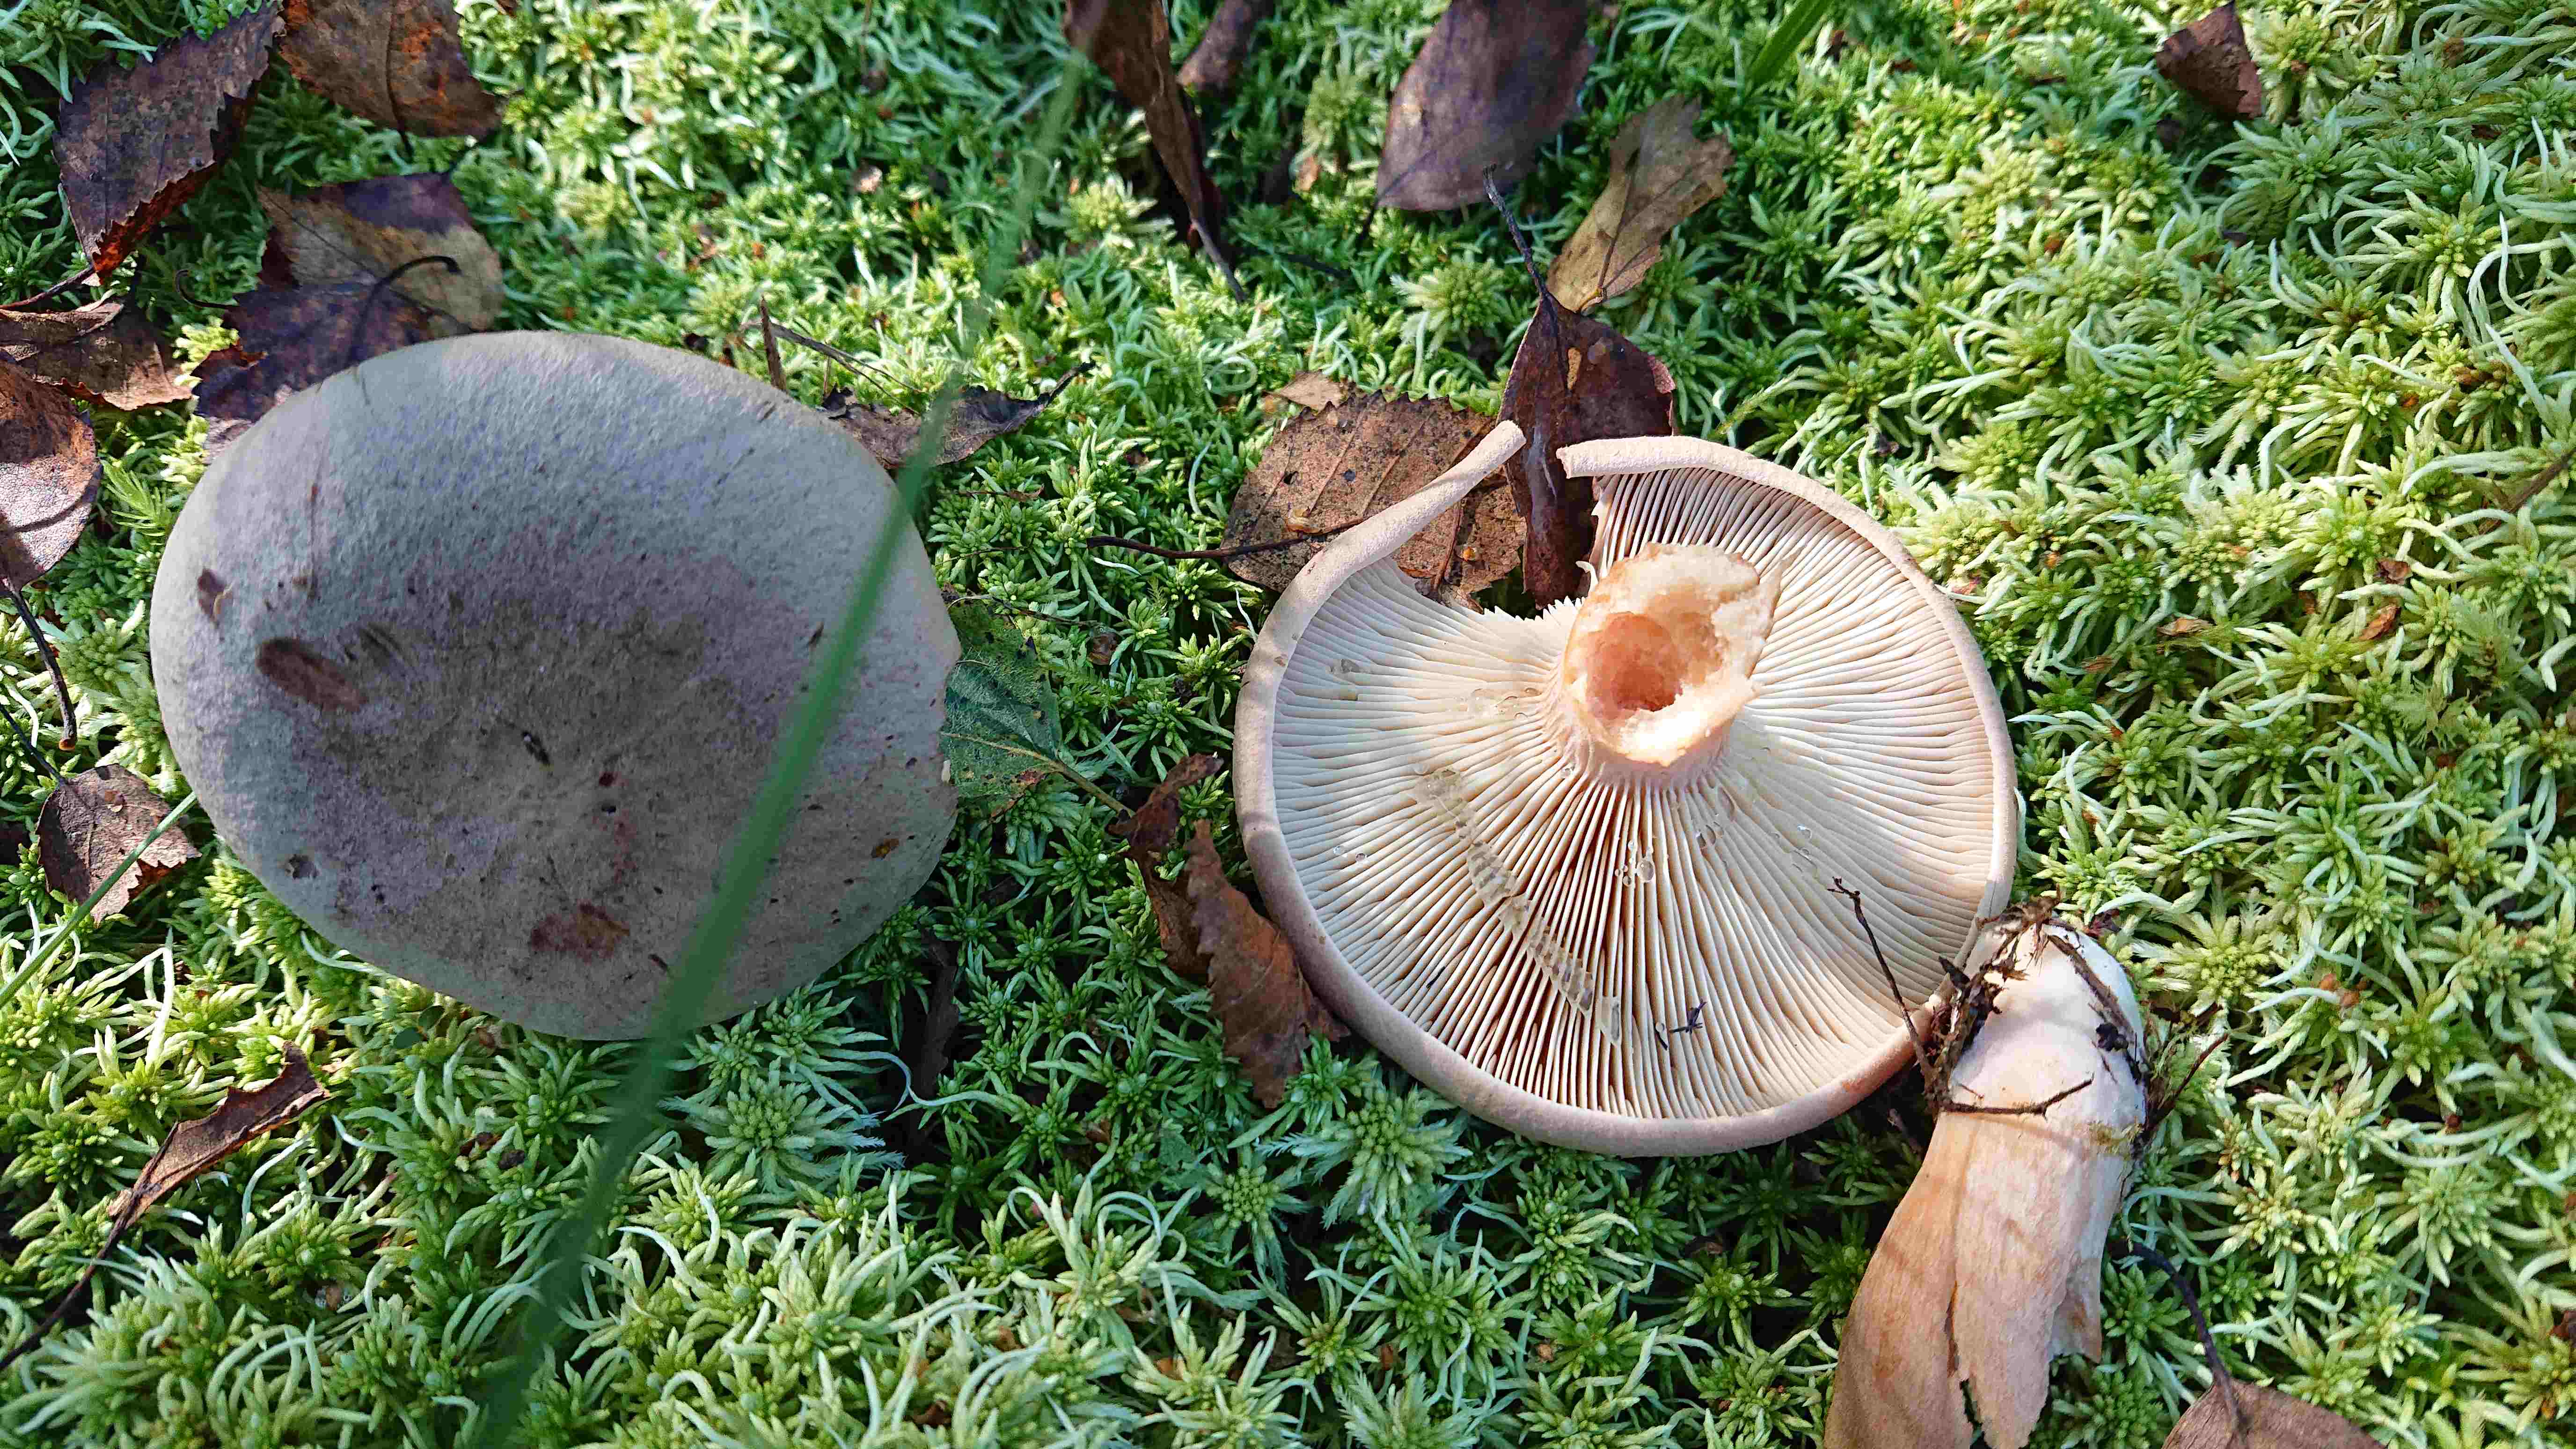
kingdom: Fungi
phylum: Basidiomycota
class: Agaricomycetes
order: Russulales
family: Russulaceae
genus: Lactarius
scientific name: Lactarius helvus
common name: mose-mælkehat
